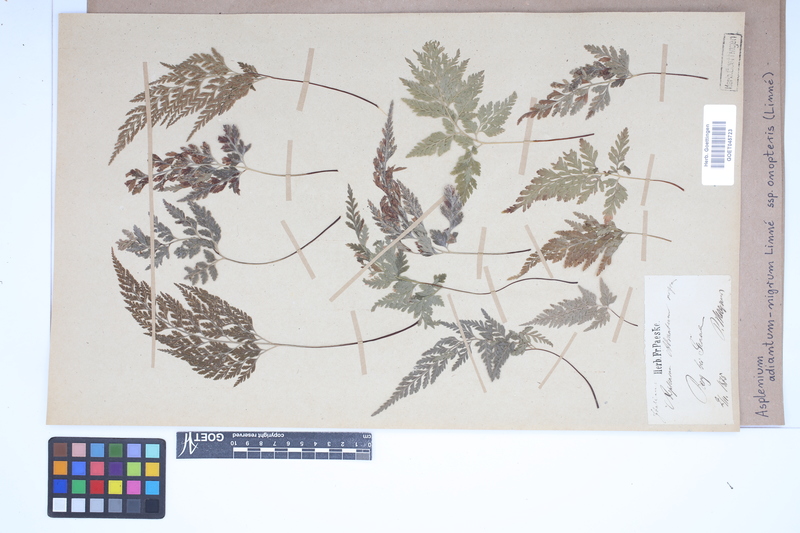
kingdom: Plantae
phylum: Tracheophyta
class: Polypodiopsida
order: Polypodiales
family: Aspleniaceae
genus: Asplenium
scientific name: Asplenium onopteris
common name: Irish spleenwort
